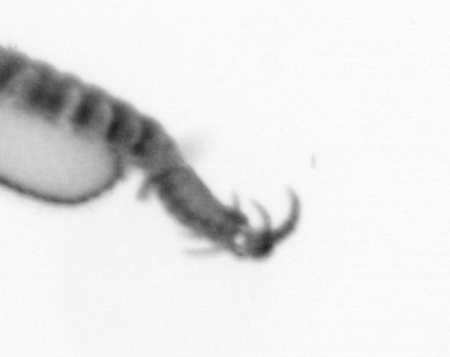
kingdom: Animalia
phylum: Annelida
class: Polychaeta
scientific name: Polychaeta
